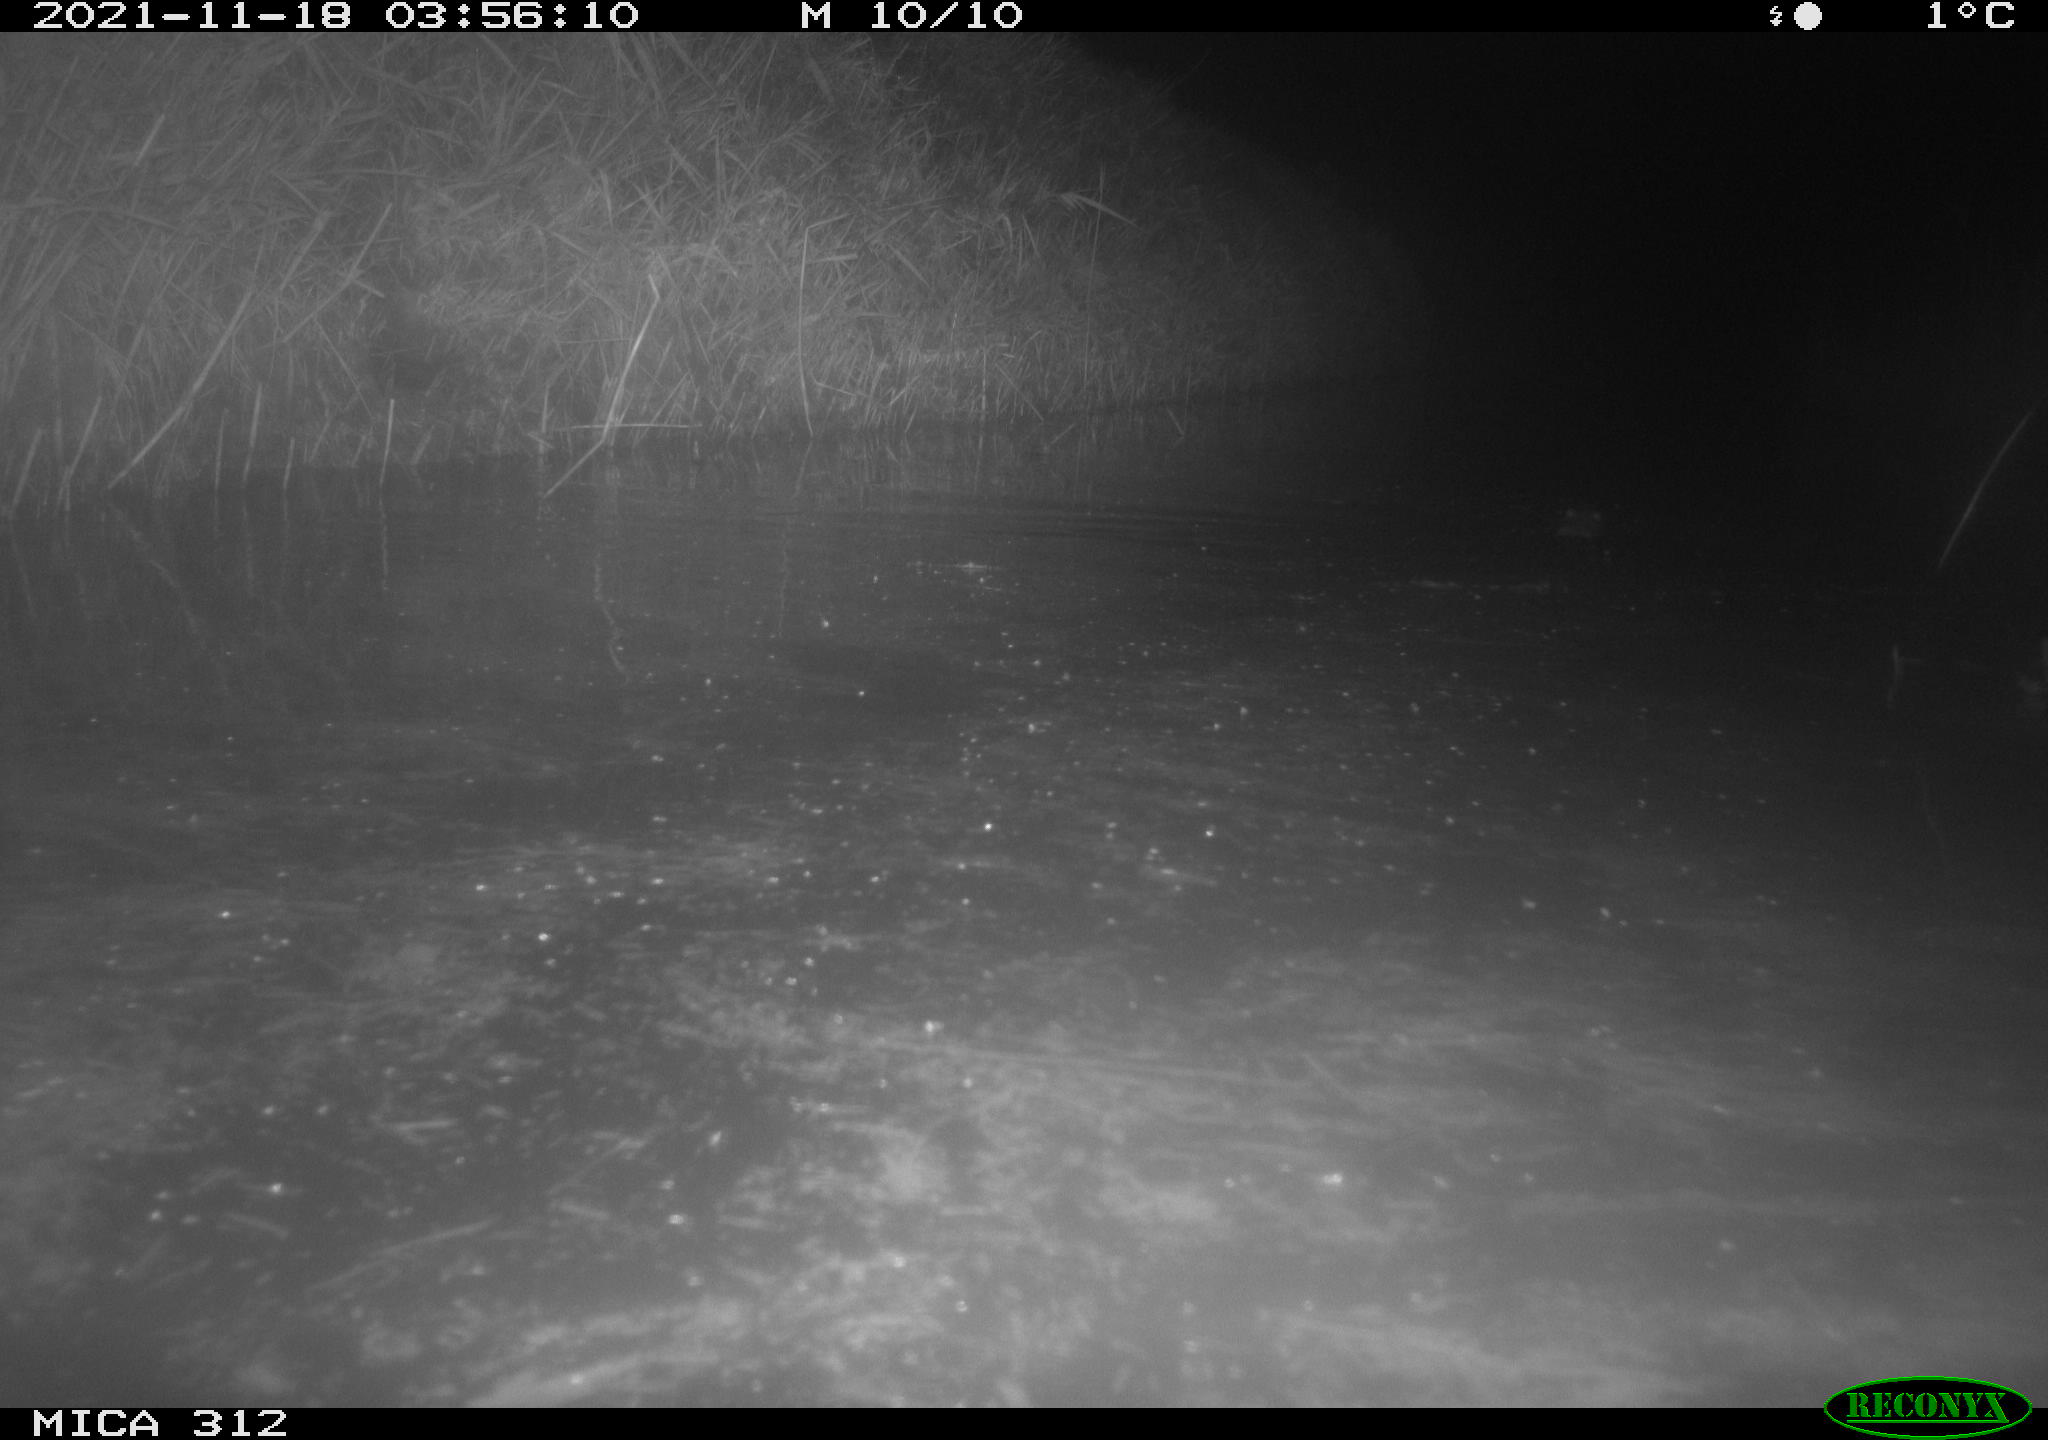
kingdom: Animalia
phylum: Chordata
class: Mammalia
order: Rodentia
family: Muridae
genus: Rattus
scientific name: Rattus norvegicus
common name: Brown rat
